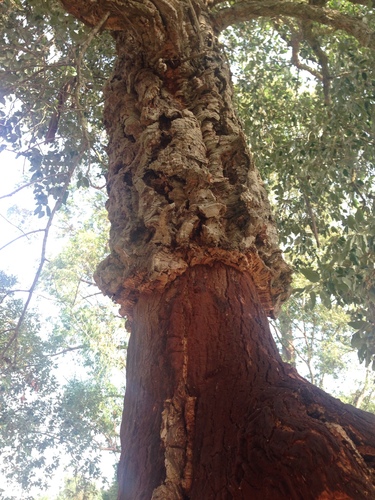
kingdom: Plantae
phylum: Tracheophyta
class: Magnoliopsida
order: Fagales
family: Fagaceae
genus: Quercus
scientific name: Quercus suber
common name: Cork oak
